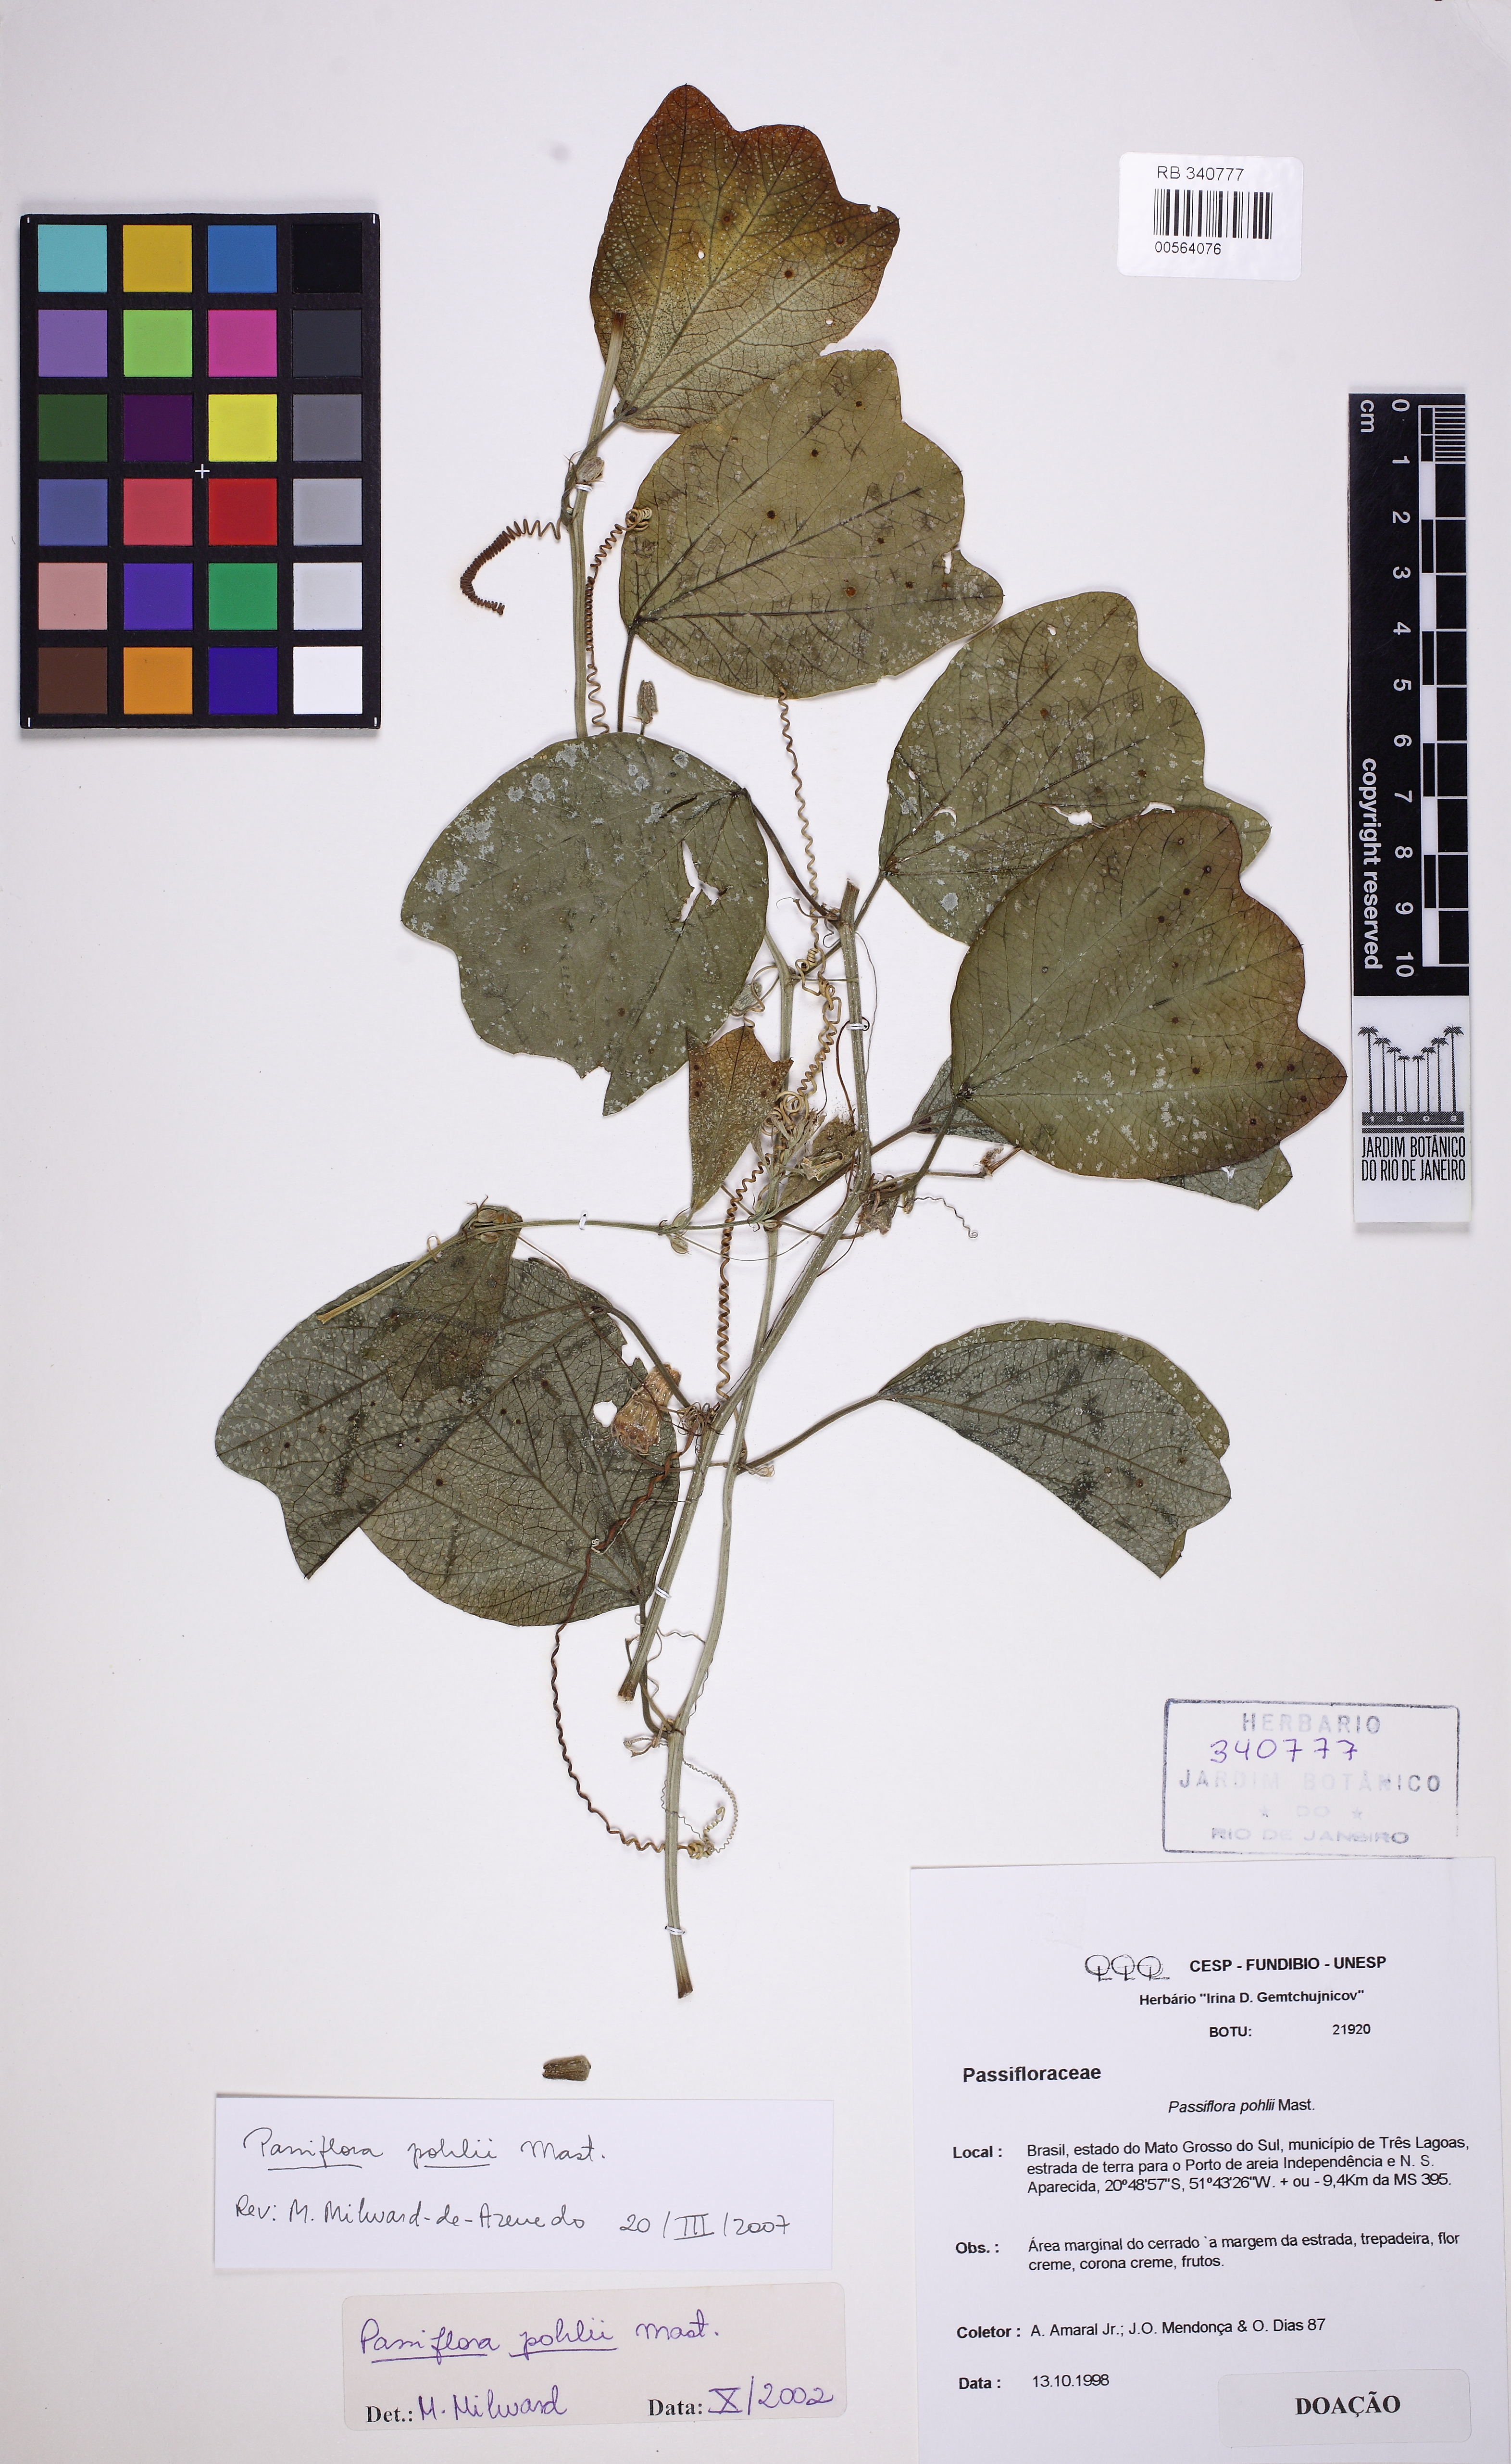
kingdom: Plantae
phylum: Tracheophyta
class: Magnoliopsida
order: Malpighiales
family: Passifloraceae
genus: Passiflora
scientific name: Passiflora pohlii
